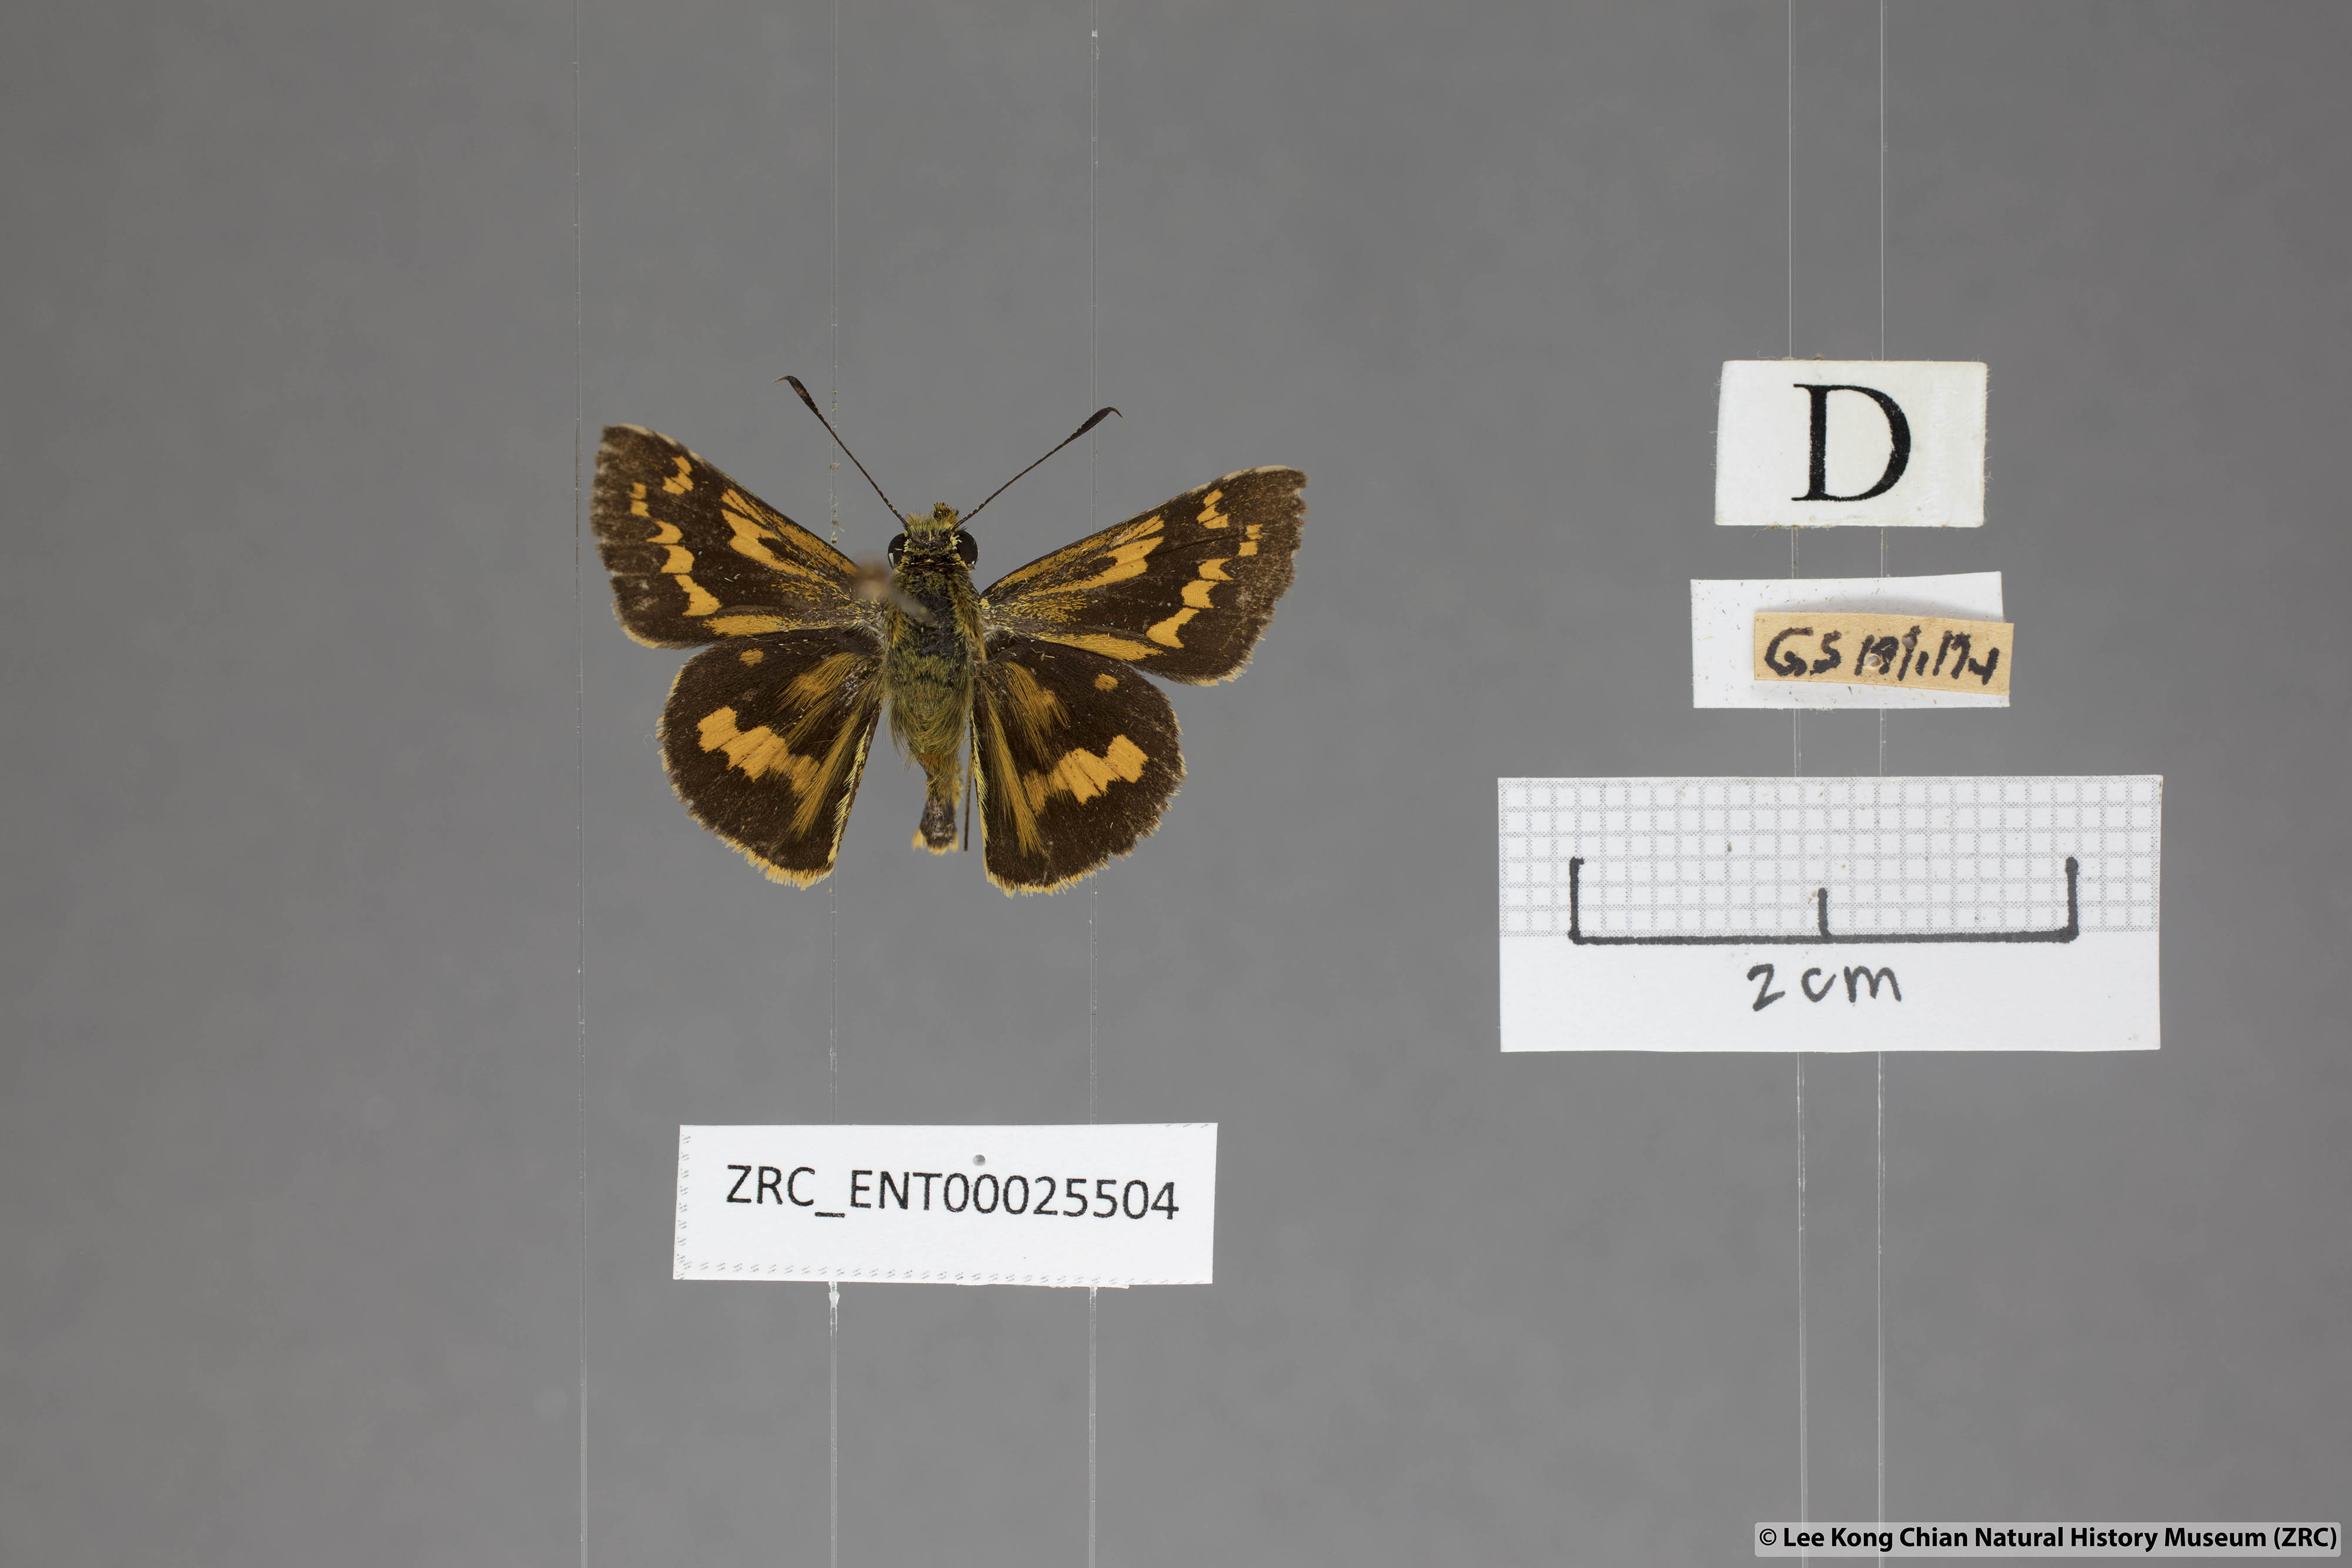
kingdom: Animalia
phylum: Arthropoda
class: Insecta
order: Lepidoptera
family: Hesperiidae
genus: Potanthus
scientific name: Potanthus trachala
